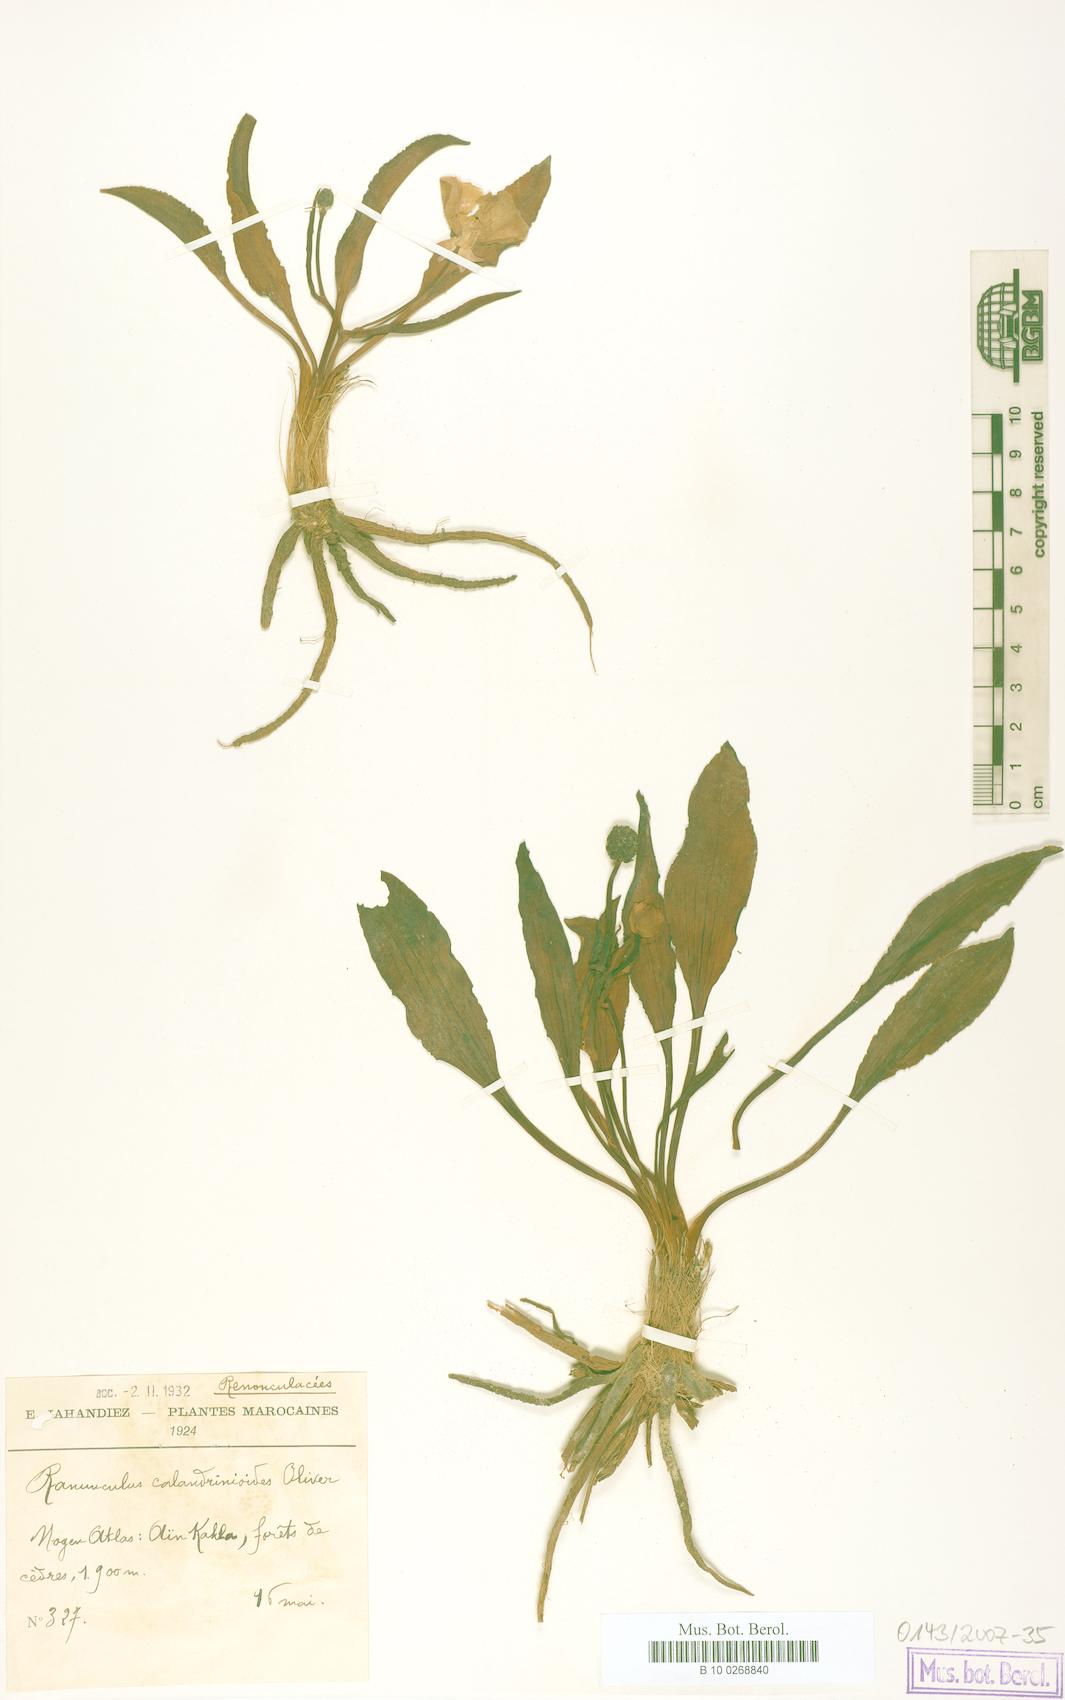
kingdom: Plantae
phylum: Tracheophyta
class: Magnoliopsida
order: Ranunculales
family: Ranunculaceae
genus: Ranunculus
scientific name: Ranunculus calandrinioides
